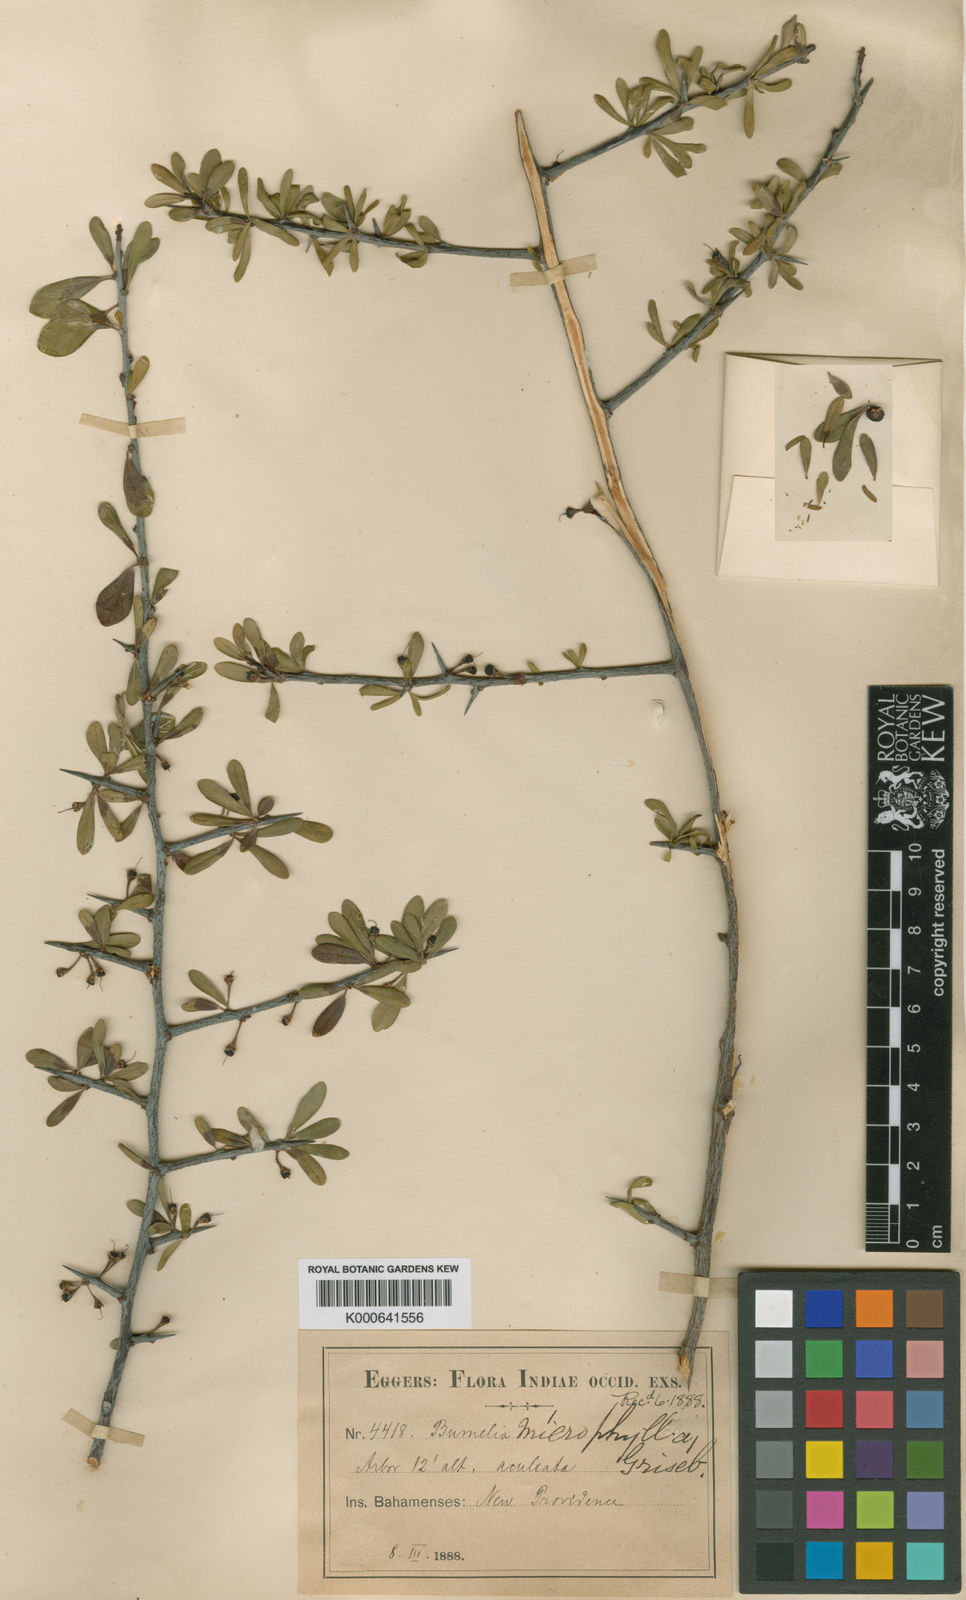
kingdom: Plantae
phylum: Tracheophyta
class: Magnoliopsida
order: Ericales
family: Sapotaceae
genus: Sideroxylon
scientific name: Sideroxylon celastrinum
